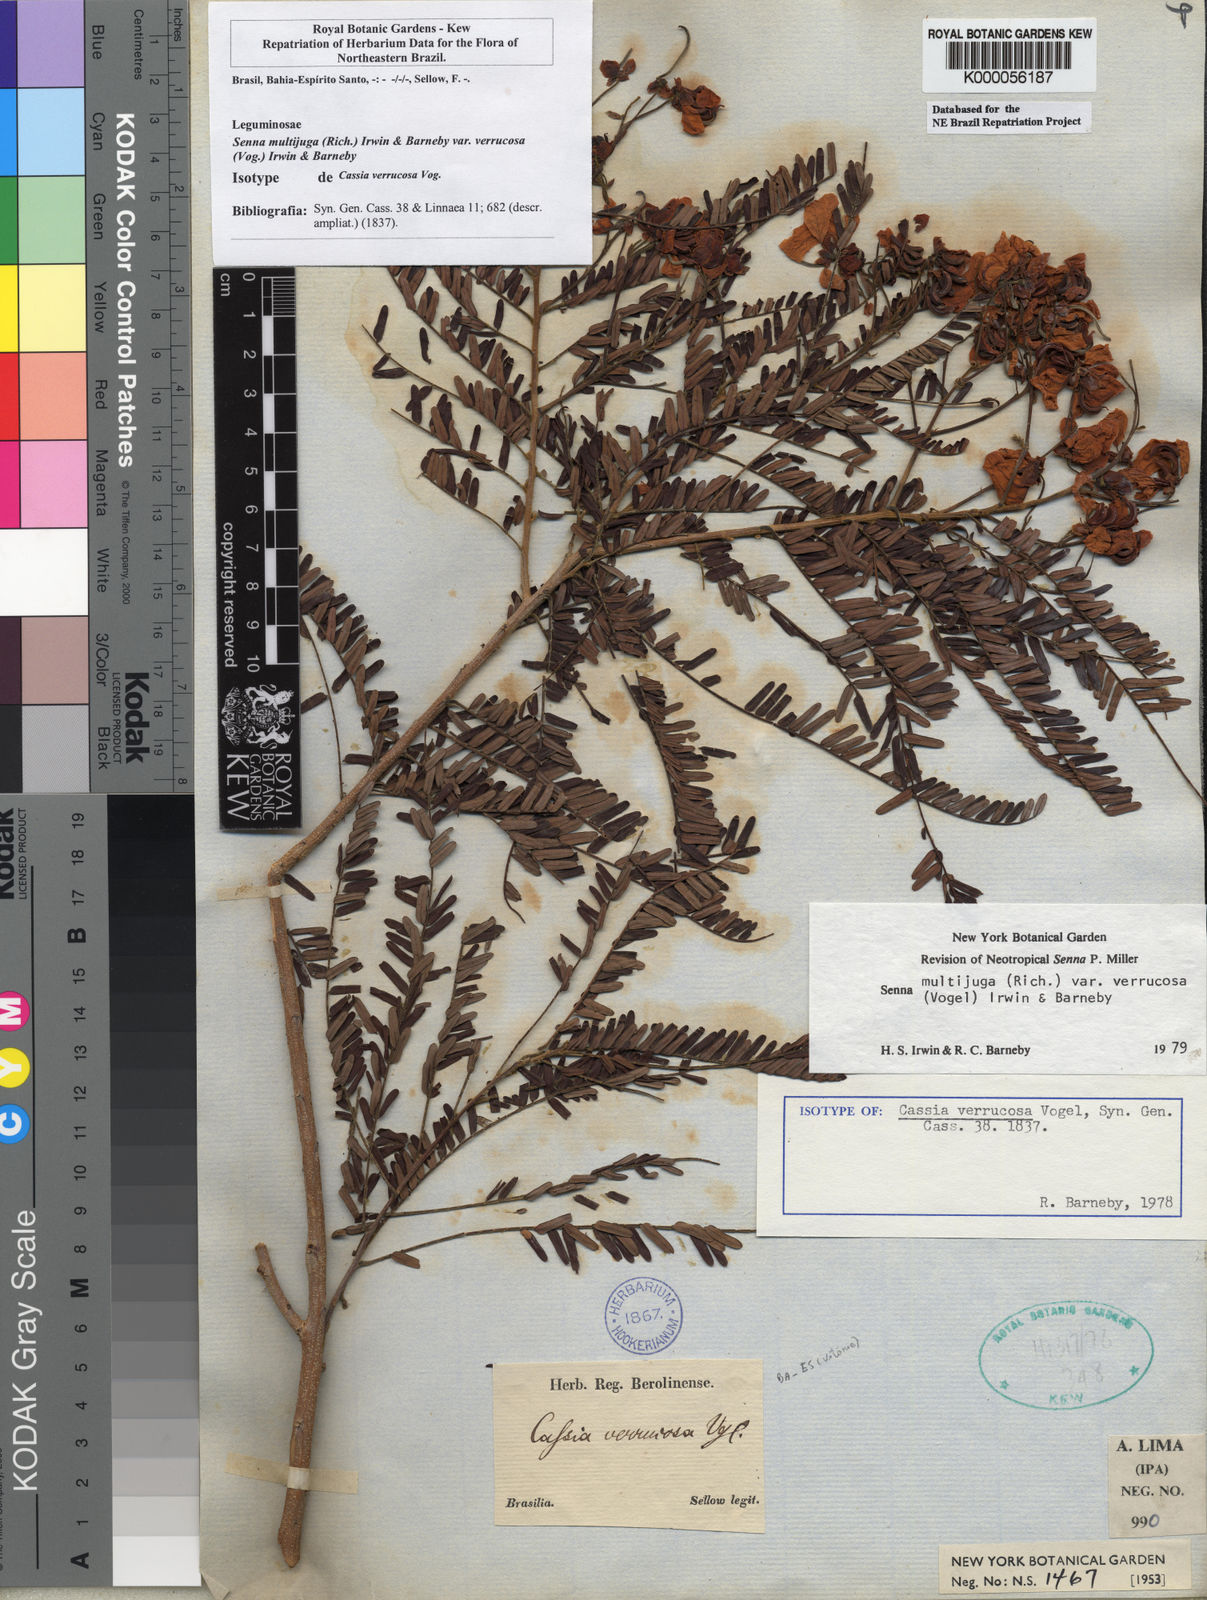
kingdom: Plantae
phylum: Tracheophyta
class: Magnoliopsida
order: Fabales
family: Fabaceae
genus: Senna
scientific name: Senna multijuga
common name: False sicklepod
